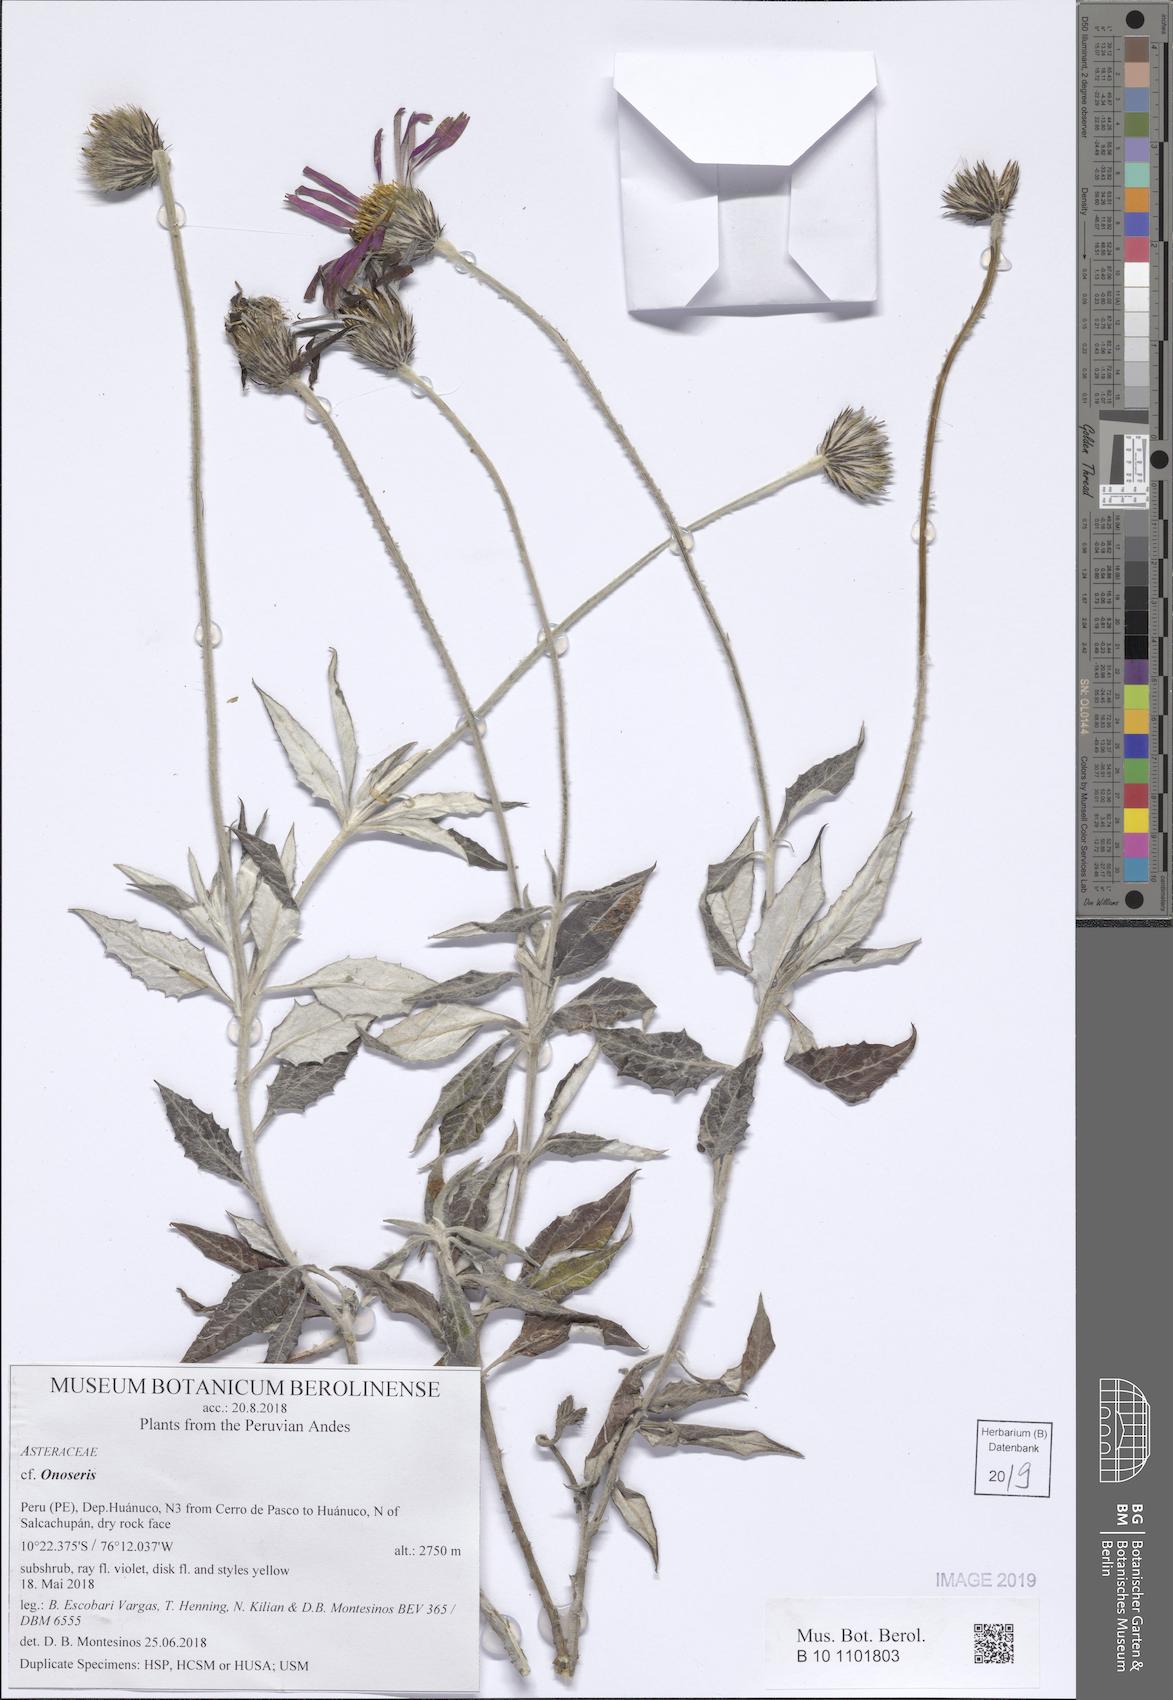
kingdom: Plantae
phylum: Tracheophyta
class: Magnoliopsida
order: Asterales
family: Asteraceae
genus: Onoseris
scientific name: Onoseris albicans
